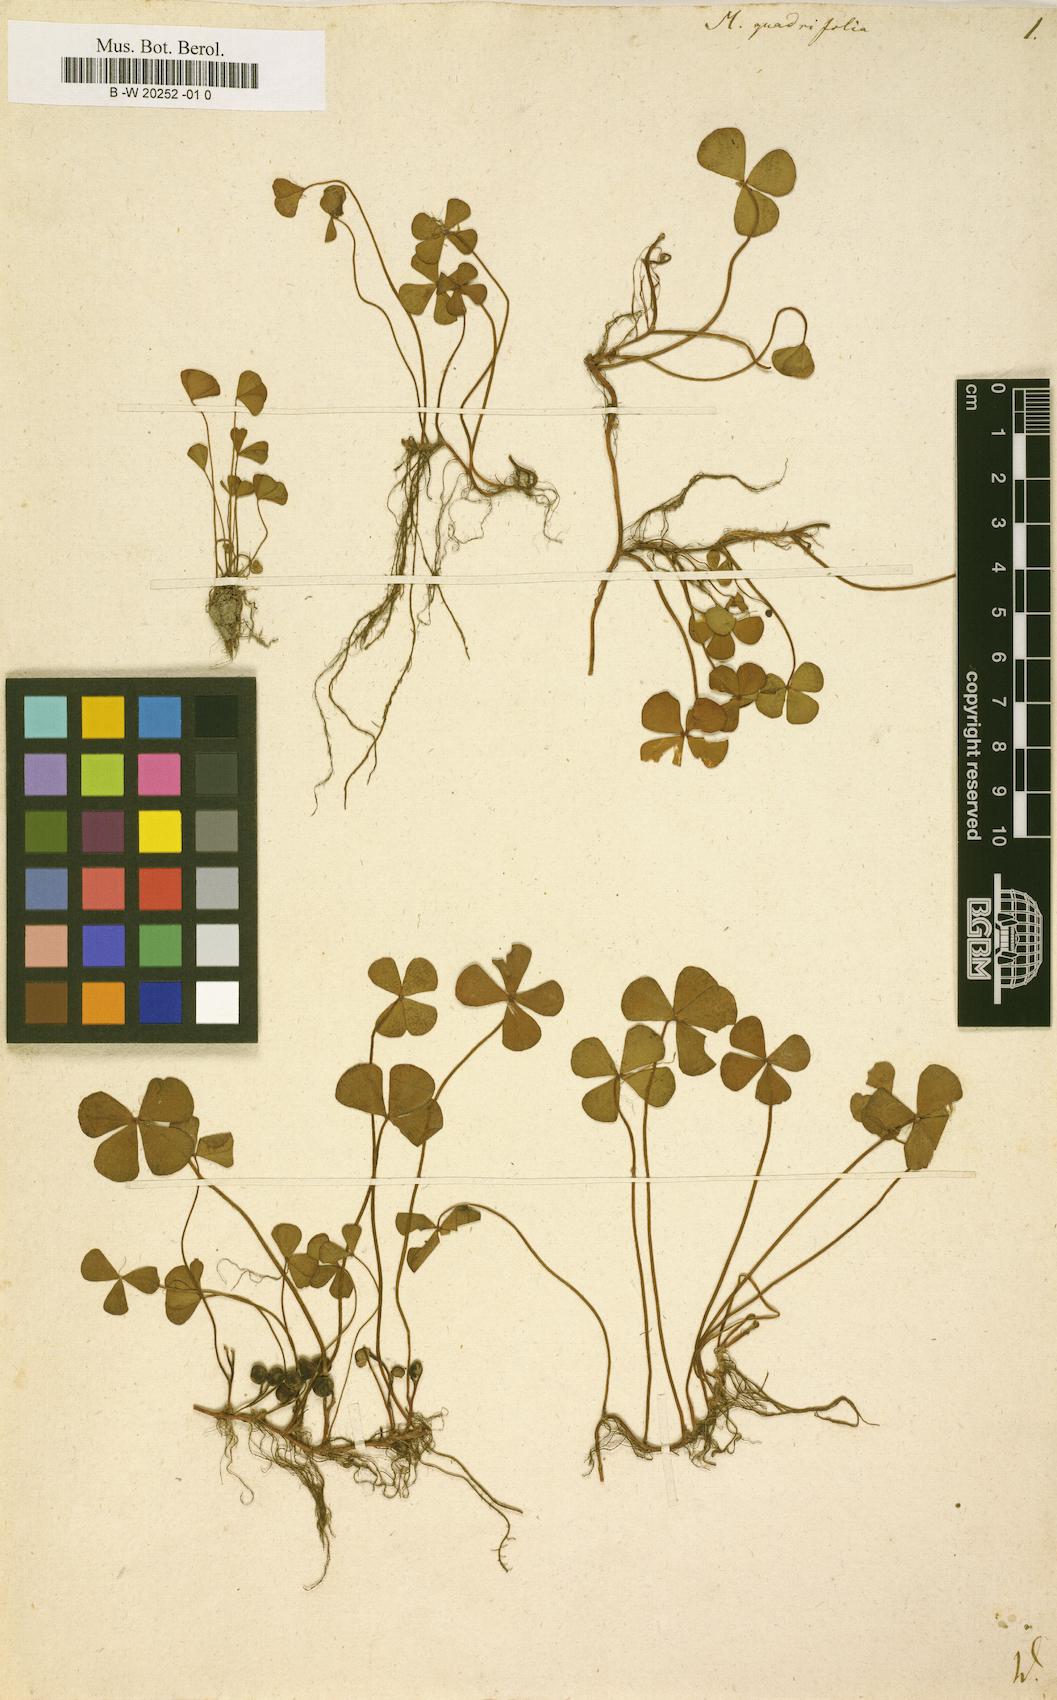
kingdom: Plantae
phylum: Tracheophyta
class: Polypodiopsida
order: Salviniales
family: Marsileaceae
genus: Marsilea
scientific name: Marsilea quadrifolia
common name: Water shamrock
